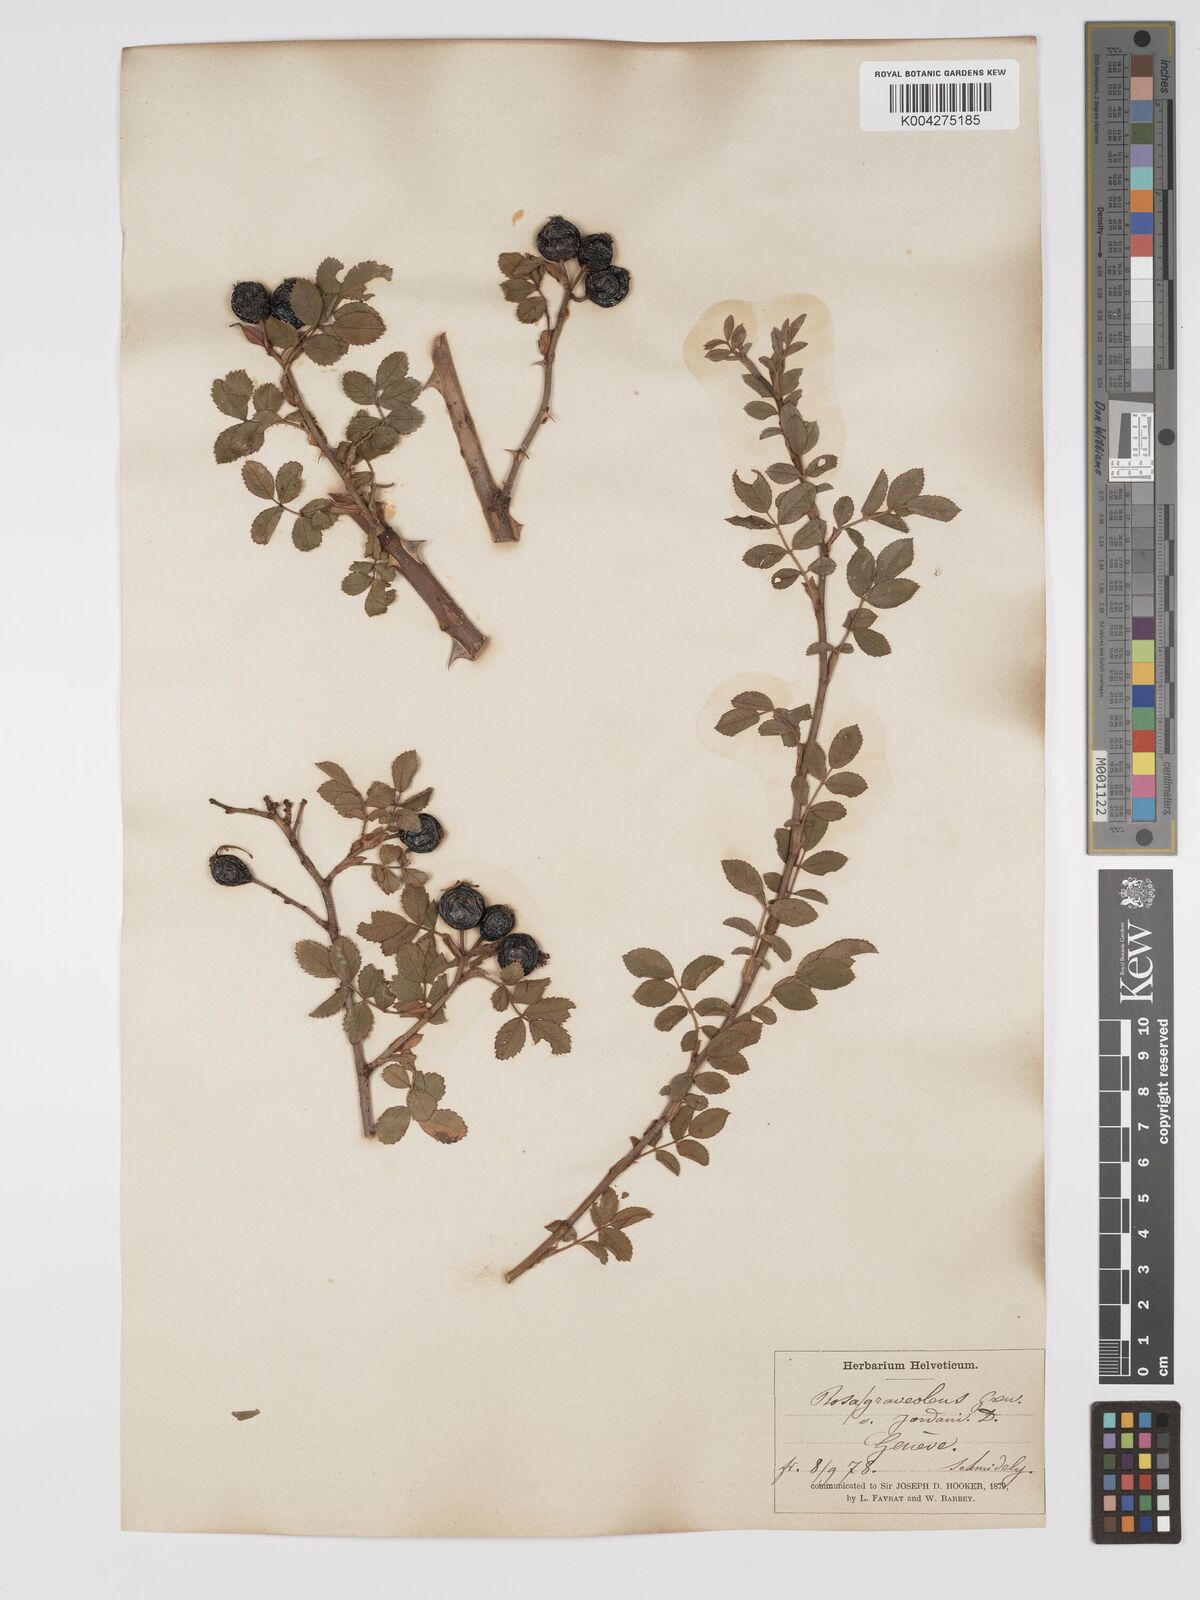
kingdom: Plantae
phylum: Tracheophyta
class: Magnoliopsida
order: Rosales
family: Rosaceae
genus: Rosa
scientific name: Rosa
